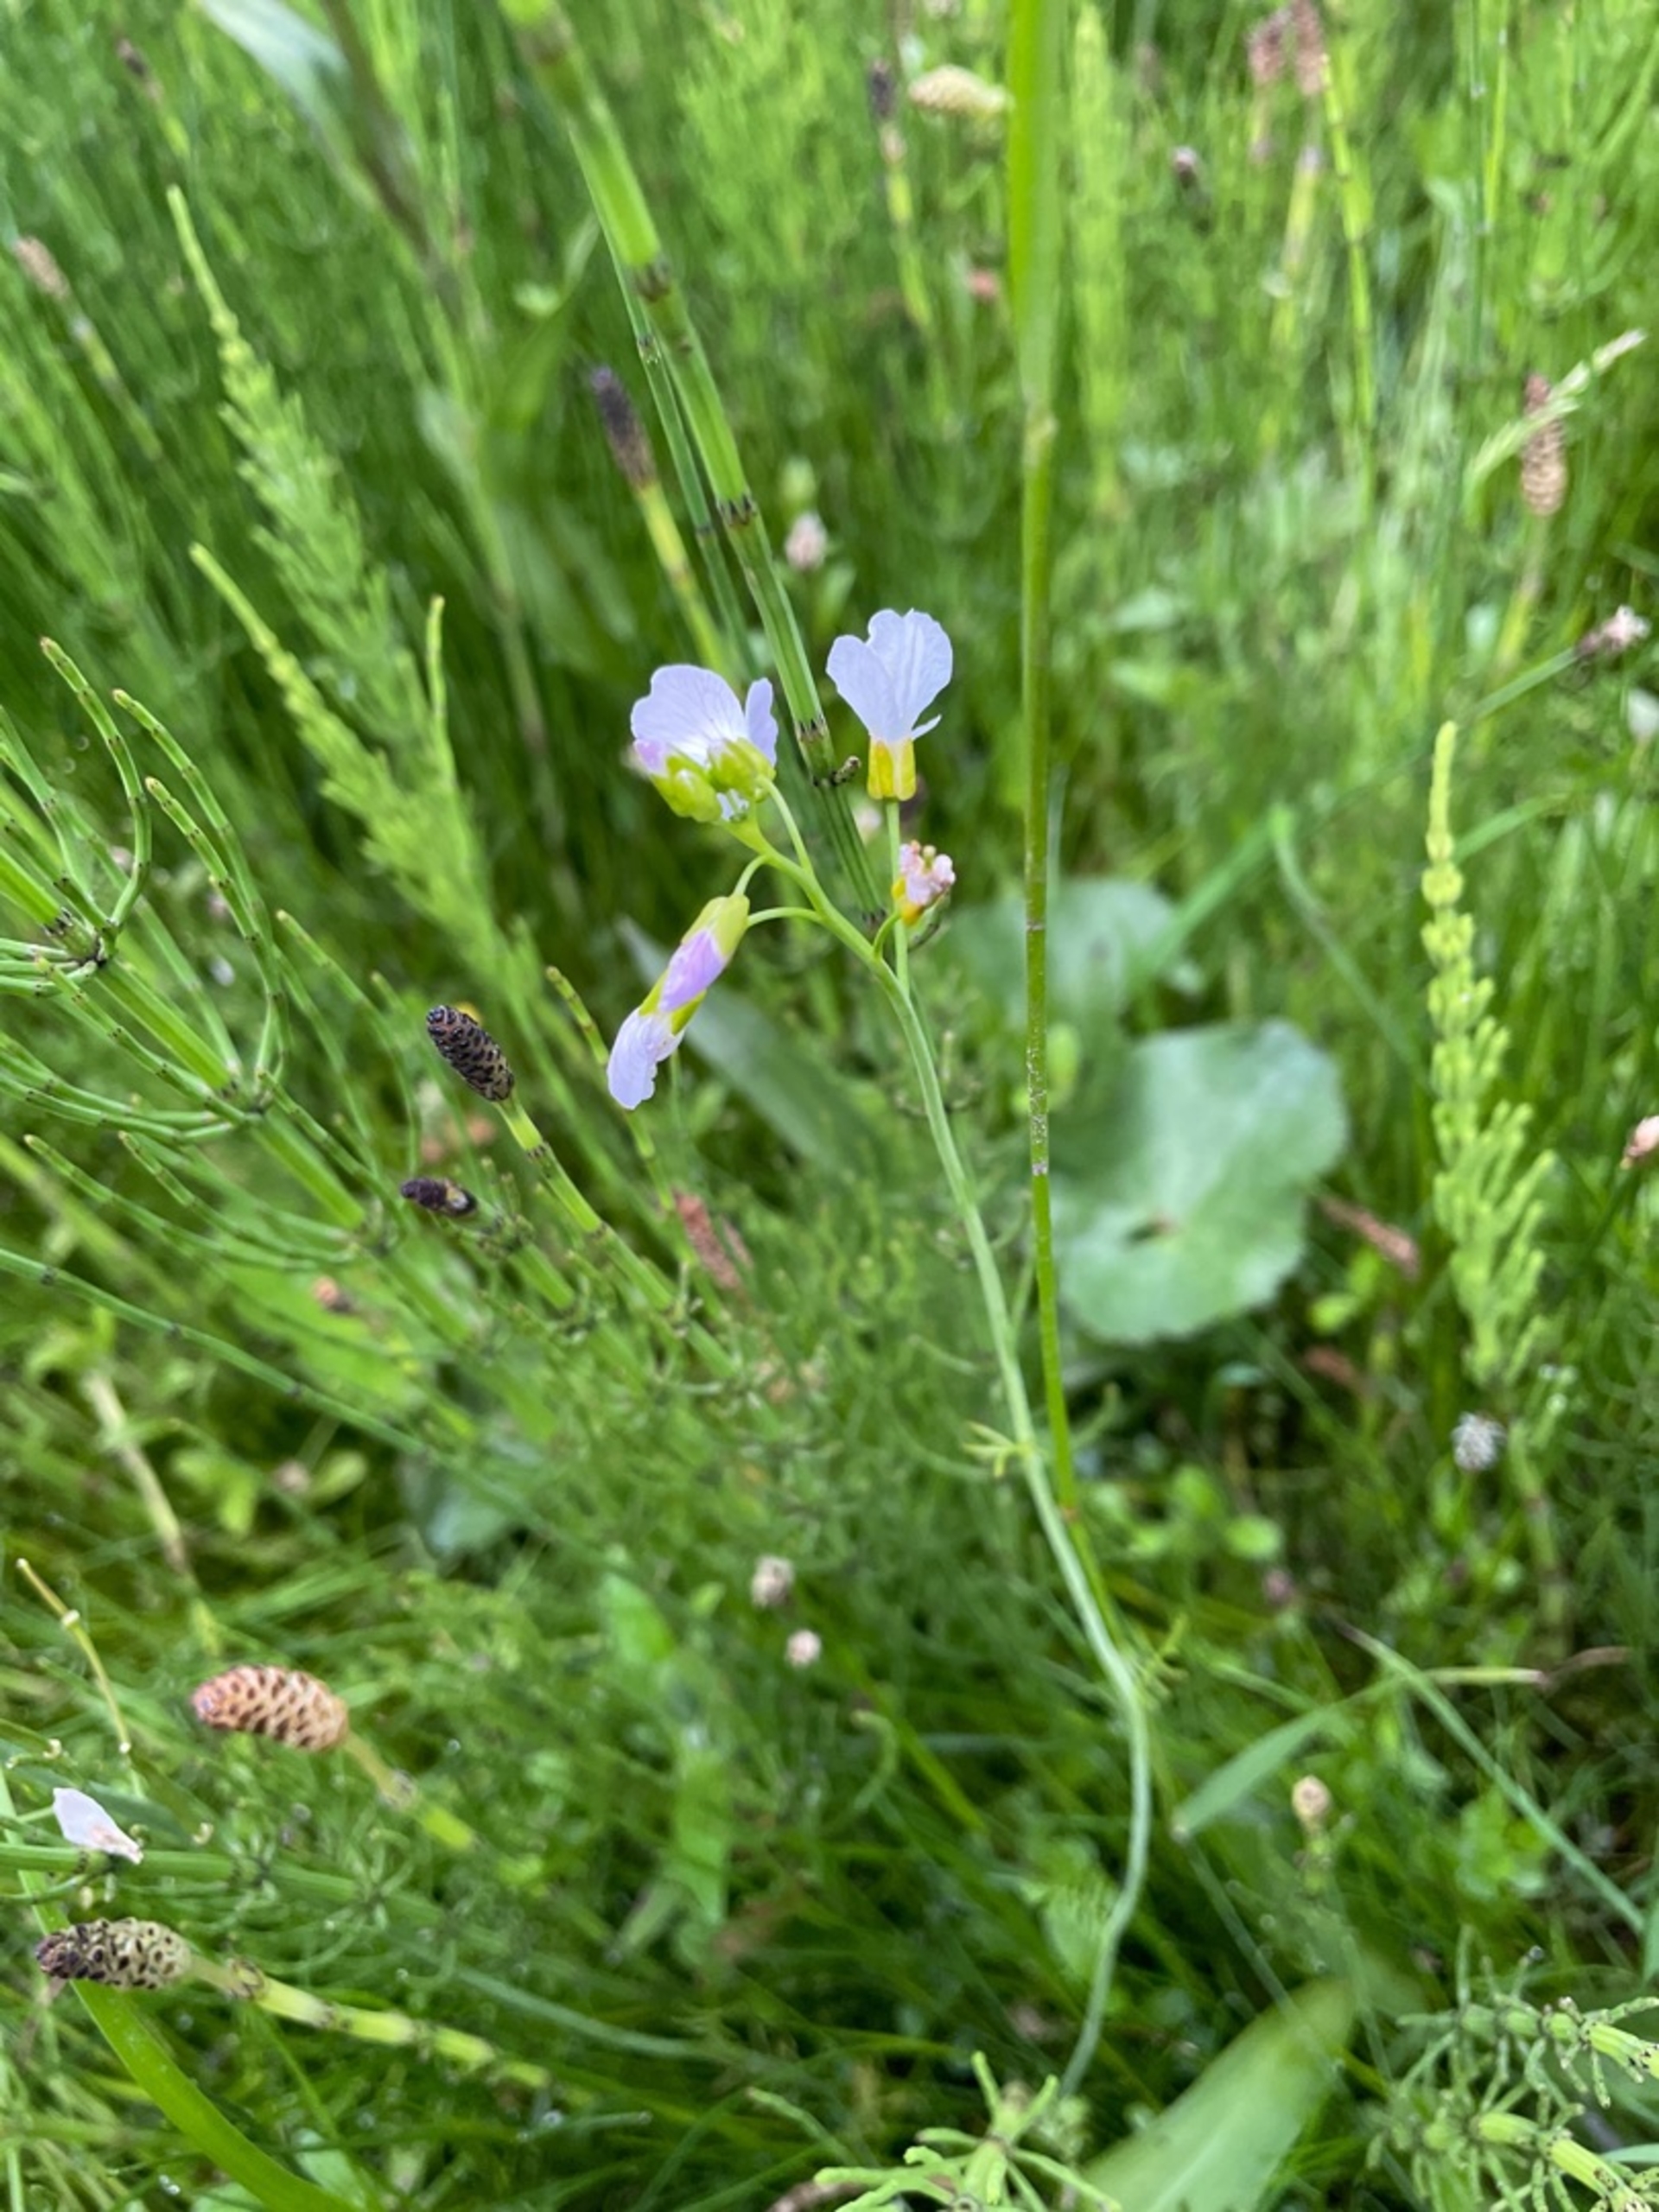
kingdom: Plantae
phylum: Tracheophyta
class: Magnoliopsida
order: Brassicales
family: Brassicaceae
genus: Cardamine
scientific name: Cardamine pratensis
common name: Engkarse
